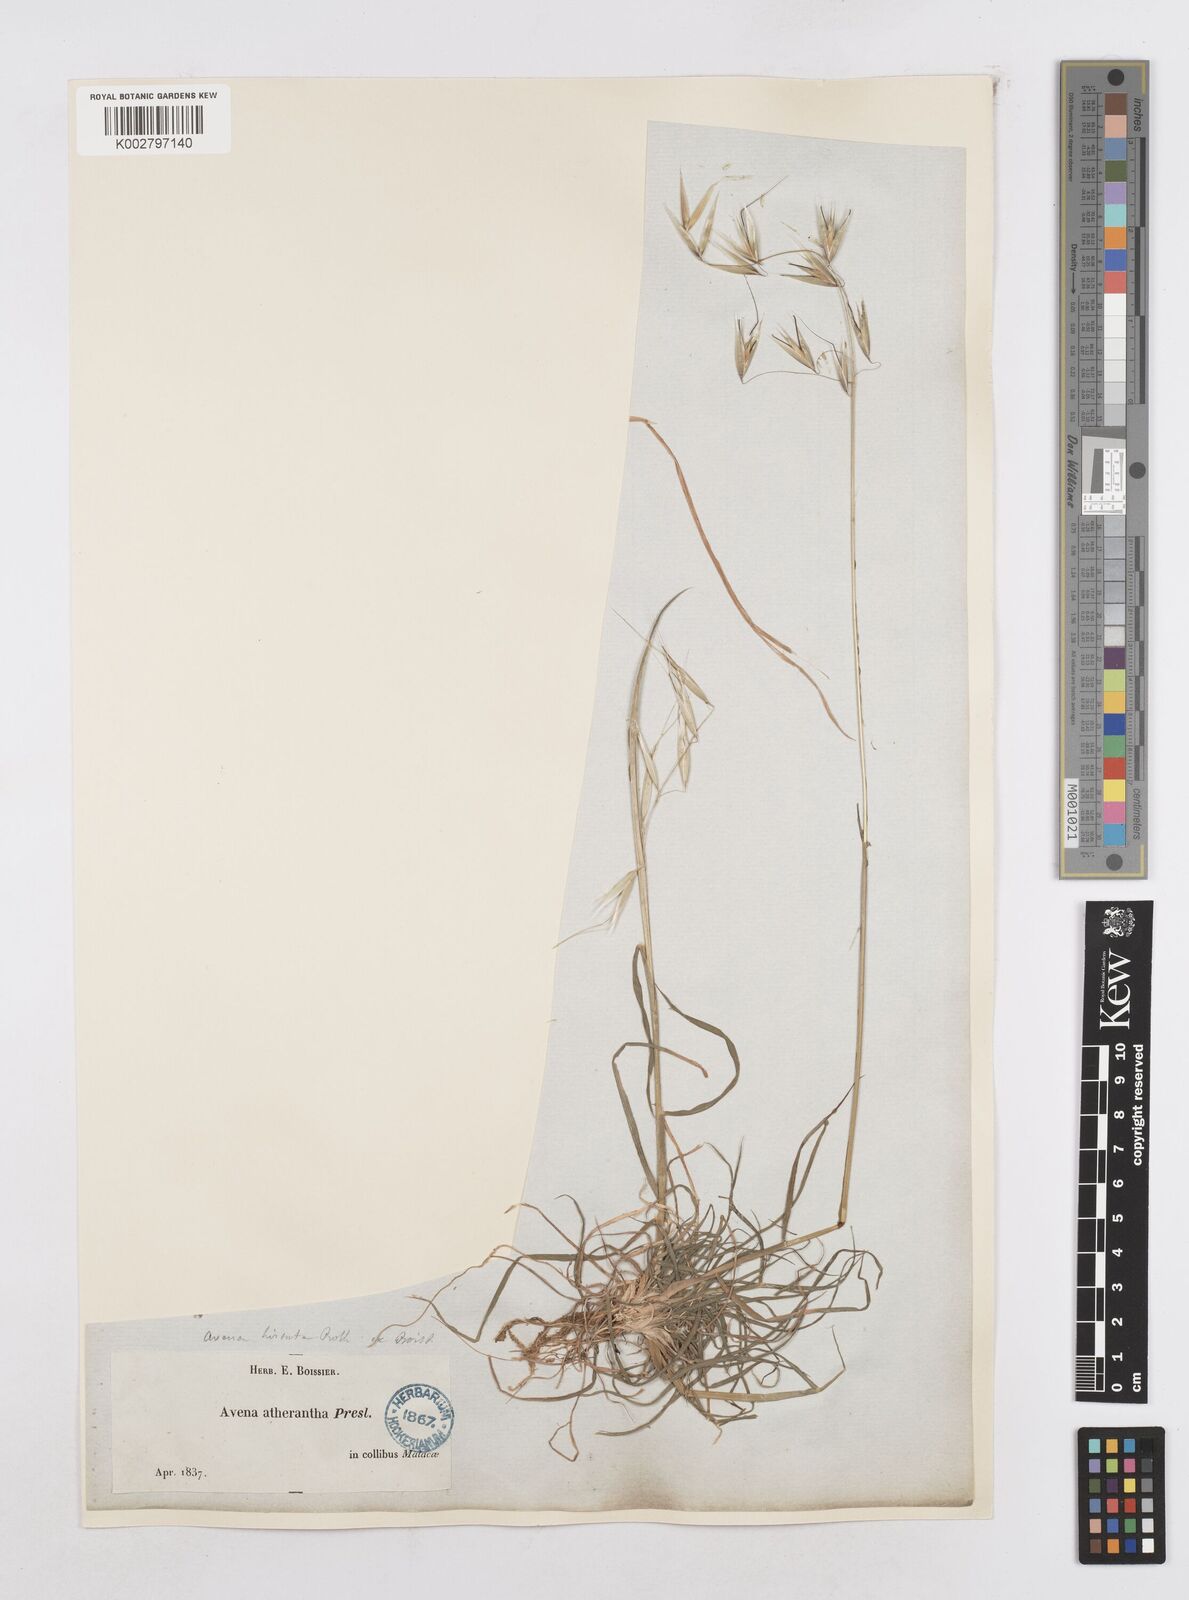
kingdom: Plantae
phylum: Tracheophyta
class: Liliopsida
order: Poales
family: Poaceae
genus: Avena
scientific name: Avena
